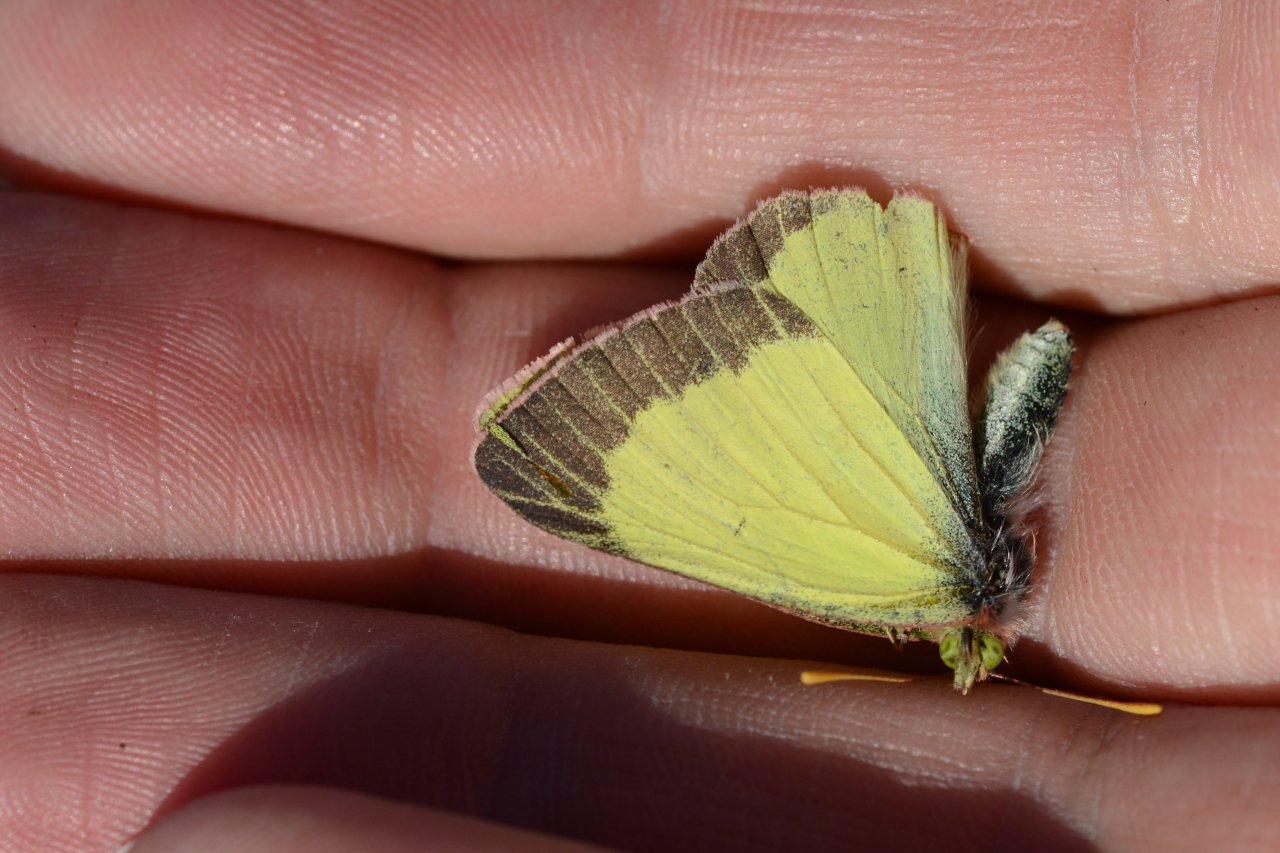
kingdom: Animalia
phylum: Arthropoda
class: Insecta
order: Lepidoptera
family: Pieridae
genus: Colias
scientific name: Colias pelidne
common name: Pelidne Sulphur
